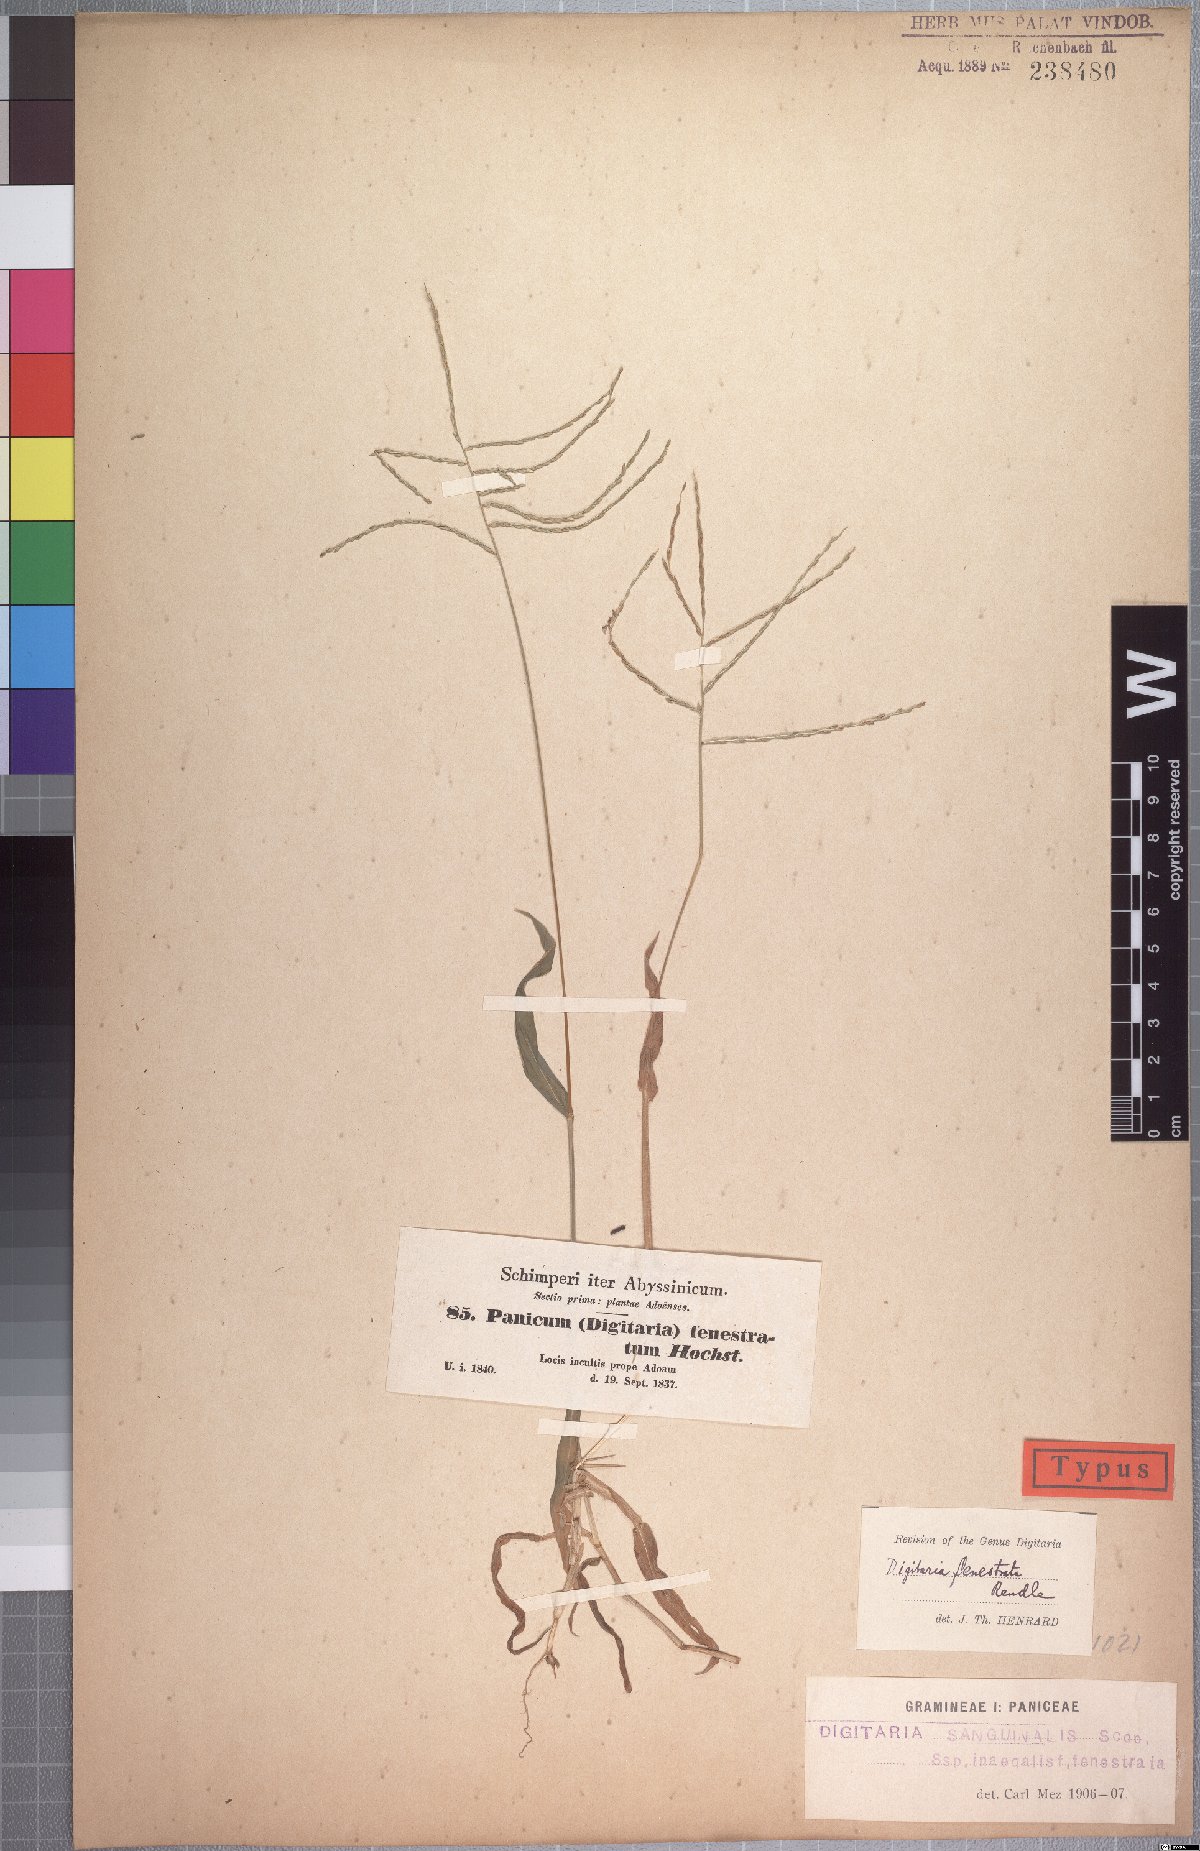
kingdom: Plantae
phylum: Tracheophyta
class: Liliopsida
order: Poales
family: Poaceae
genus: Digitaria
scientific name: Digitaria velutina
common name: Long-plume finger grass
